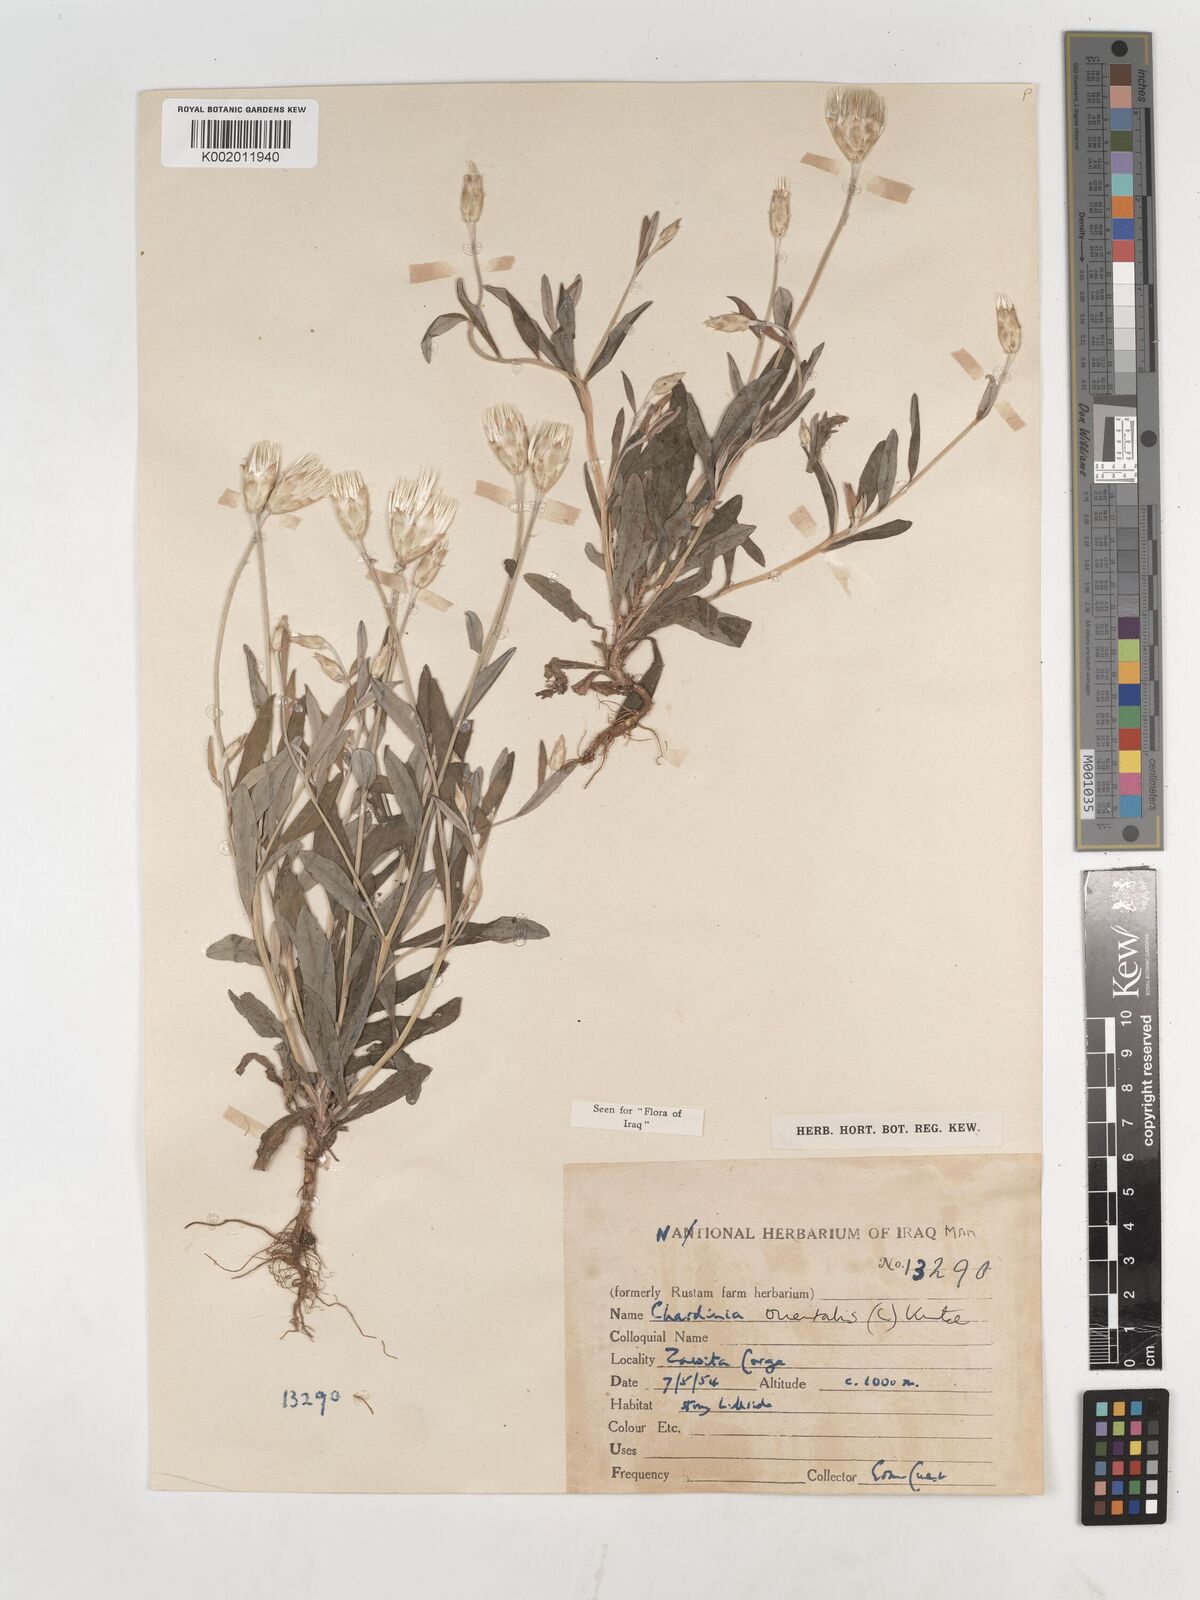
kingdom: Plantae
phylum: Tracheophyta
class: Magnoliopsida
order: Asterales
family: Asteraceae
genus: Chardinia
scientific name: Chardinia orientalis
